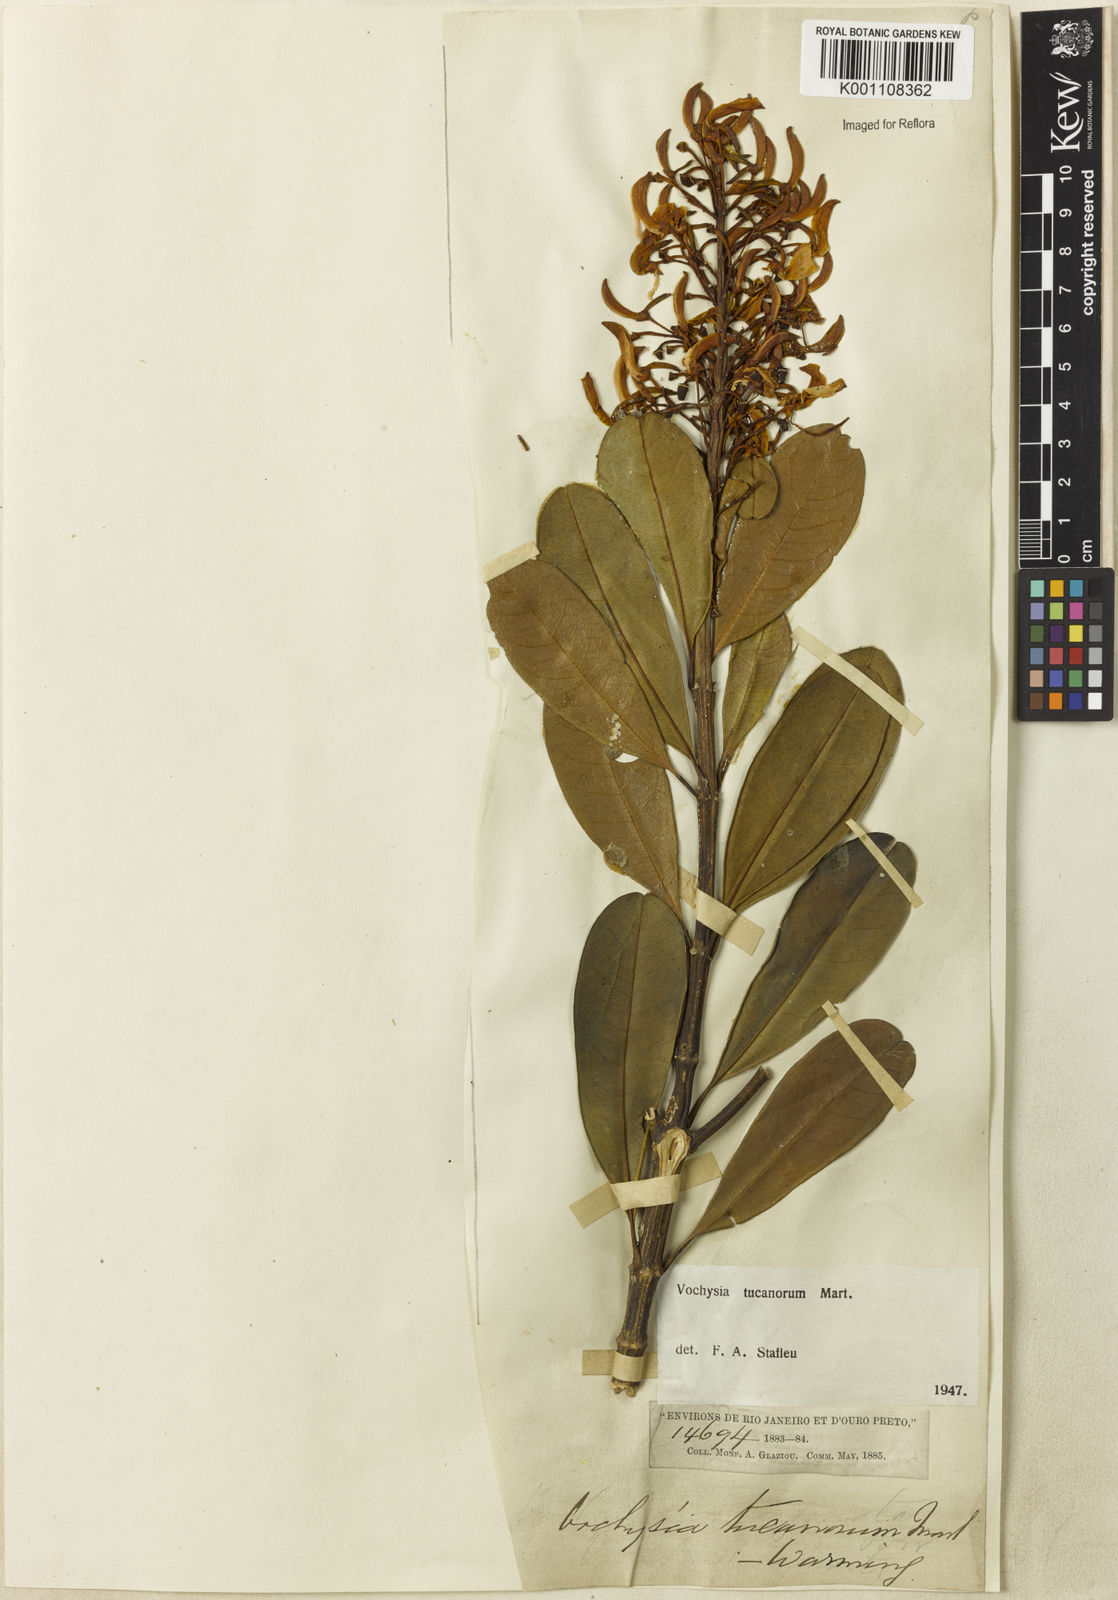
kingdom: Plantae
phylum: Tracheophyta
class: Magnoliopsida
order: Myrtales
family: Vochysiaceae
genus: Vochysia
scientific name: Vochysia tucanorum
